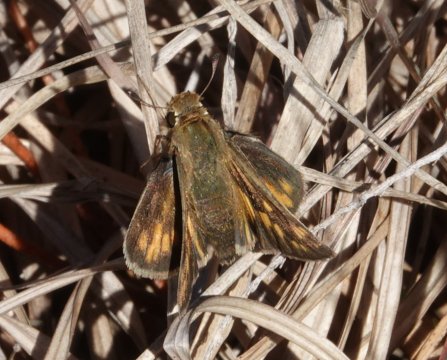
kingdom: Animalia
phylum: Arthropoda
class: Insecta
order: Lepidoptera
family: Hesperiidae
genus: Hylephila
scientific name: Hylephila phyleus
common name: Fiery Skipper
